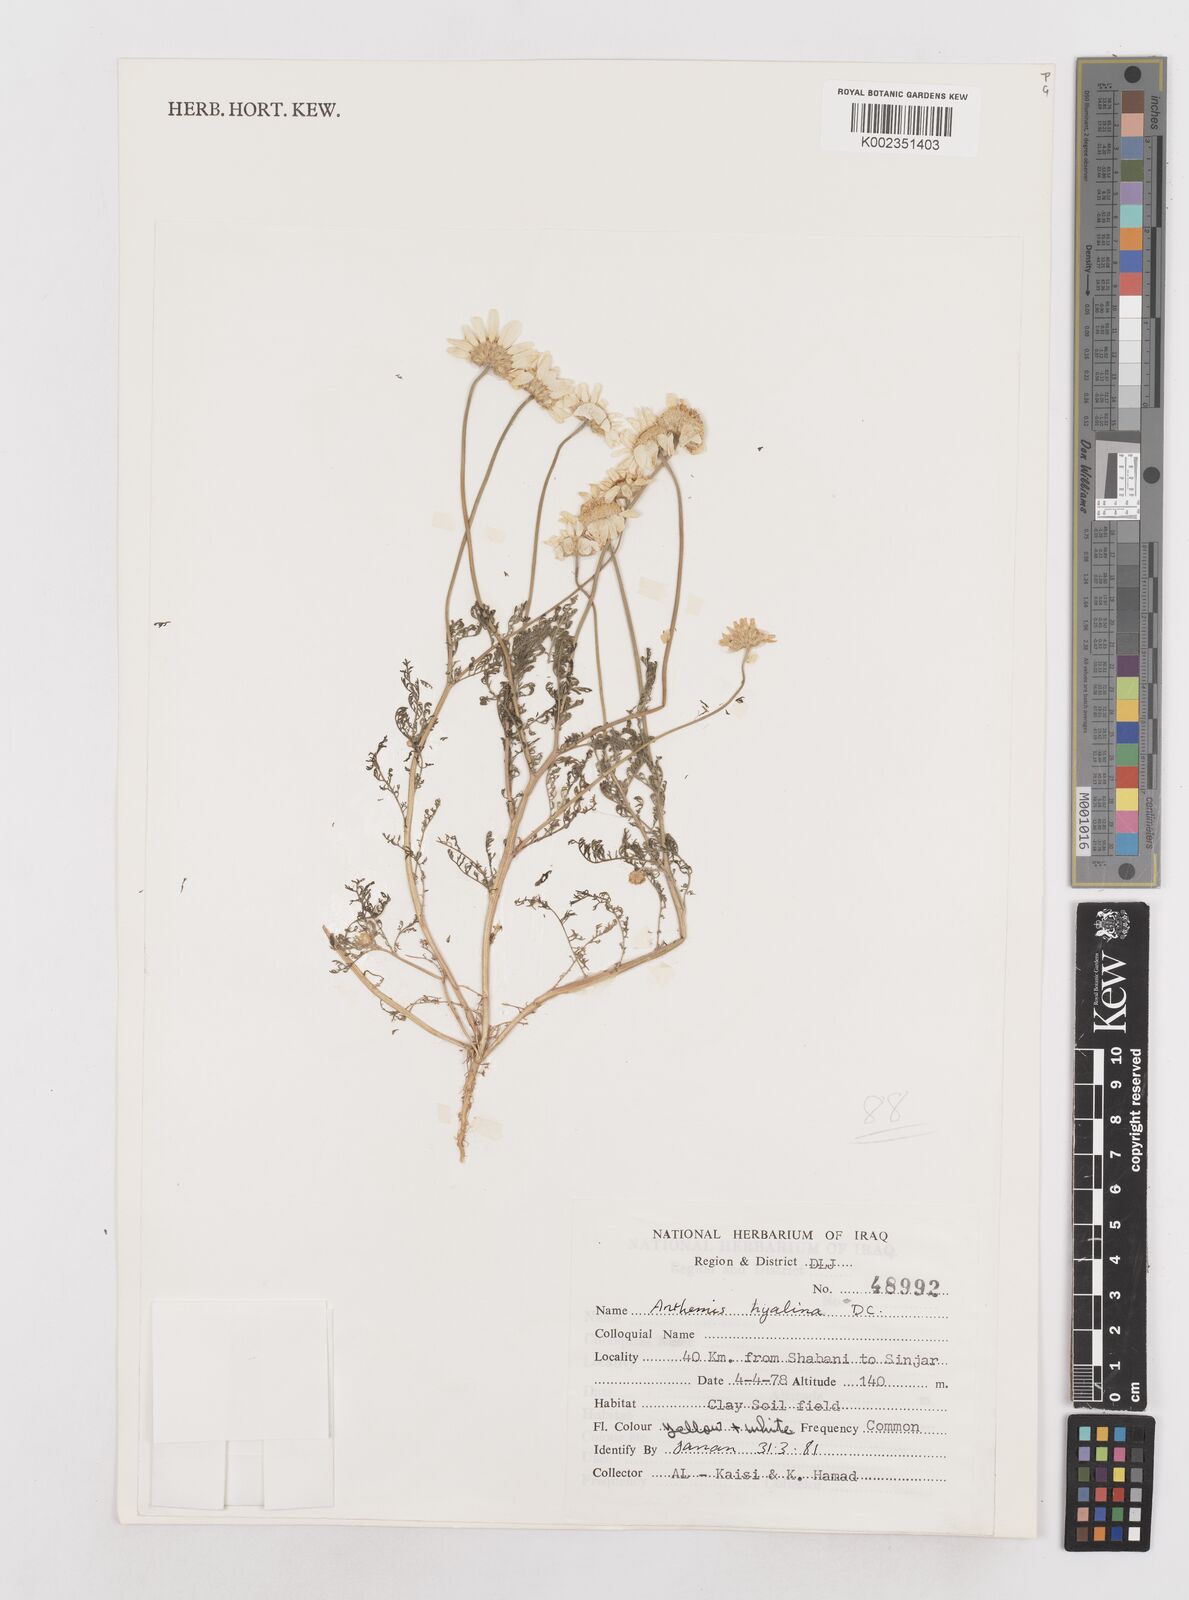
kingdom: Plantae
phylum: Tracheophyta
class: Magnoliopsida
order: Asterales
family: Asteraceae
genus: Anthemis
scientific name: Anthemis hyalina
